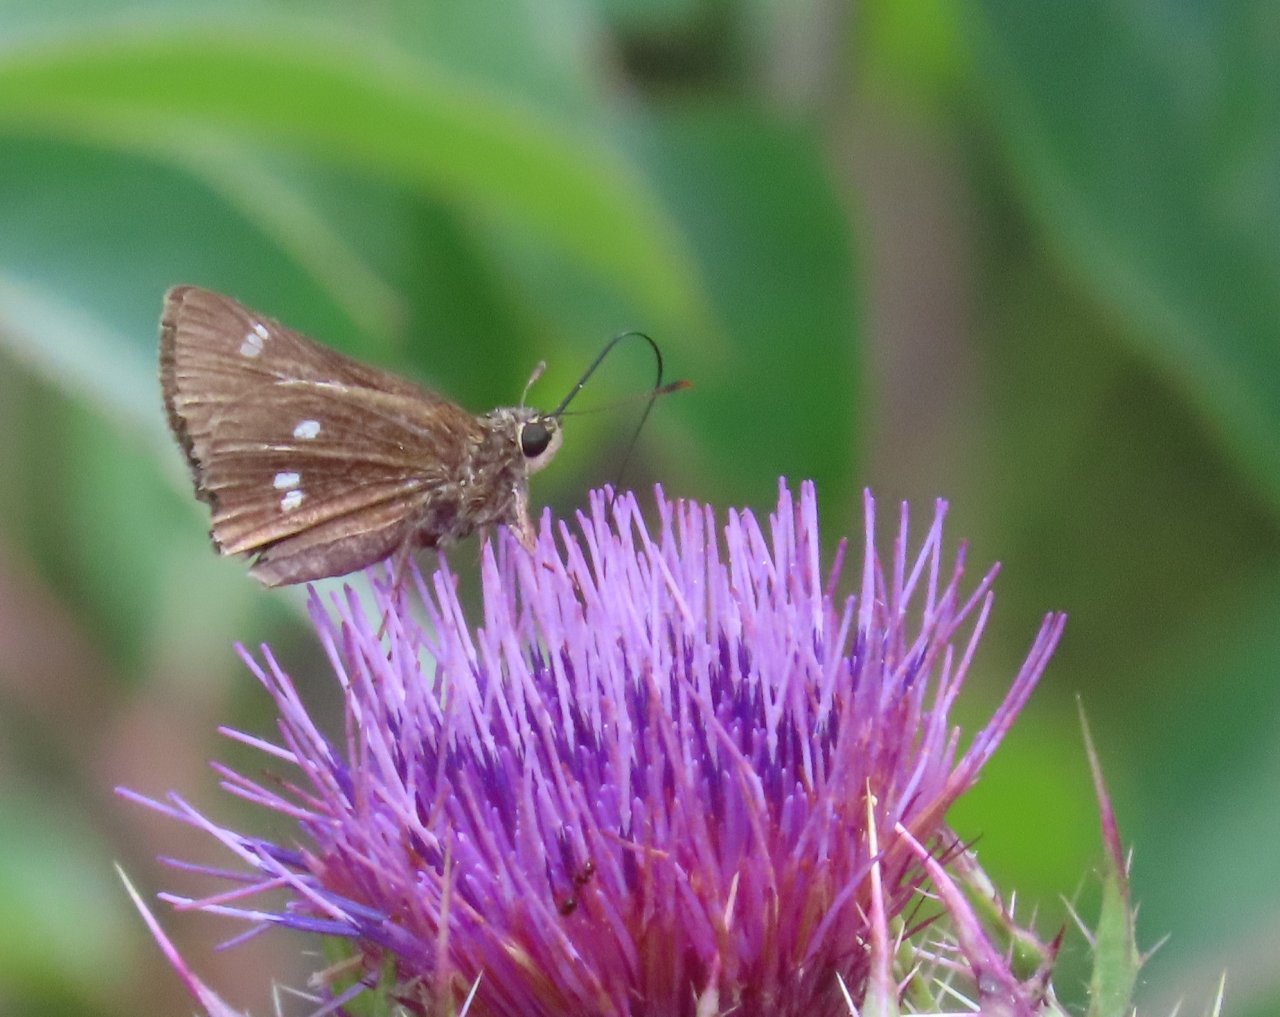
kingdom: Animalia
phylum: Arthropoda
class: Insecta
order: Lepidoptera
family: Hesperiidae
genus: Oligoria
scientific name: Oligoria maculata
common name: Twin-spot Skipper
